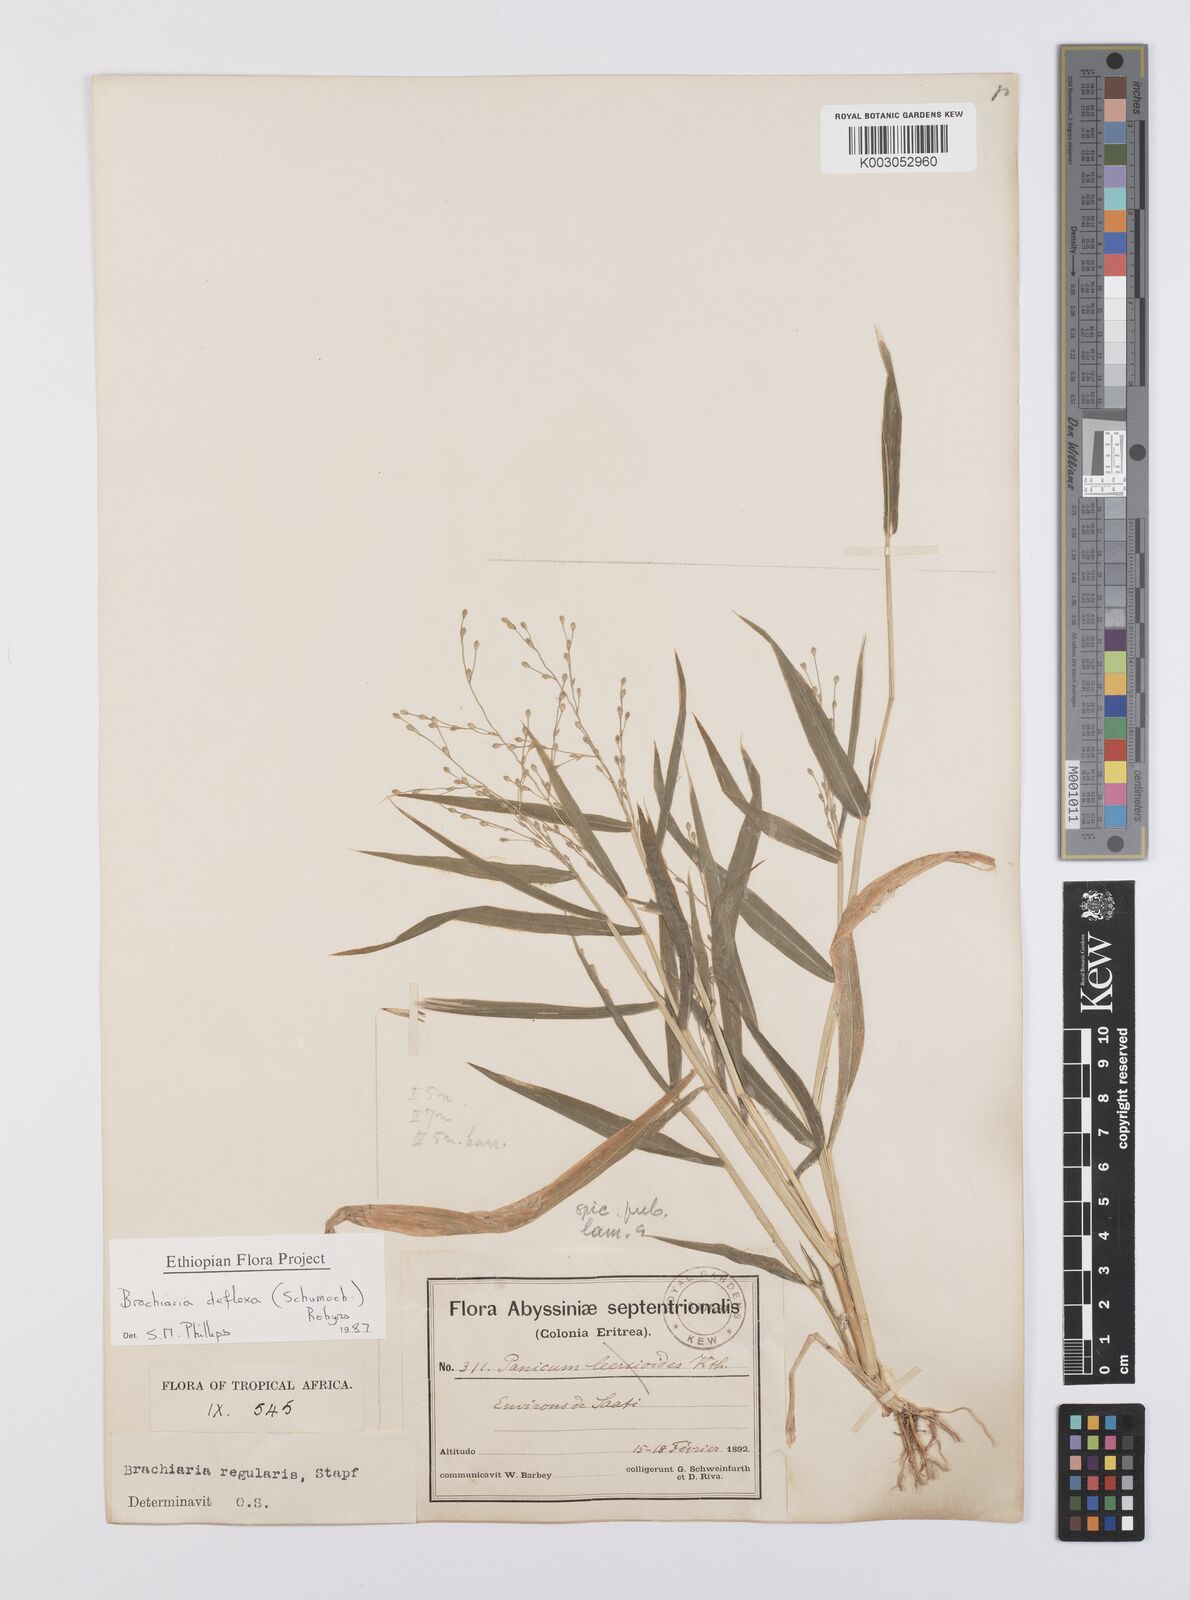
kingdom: Plantae
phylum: Tracheophyta
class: Liliopsida
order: Poales
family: Poaceae
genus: Urochloa
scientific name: Urochloa deflexa
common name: Guinea millet
